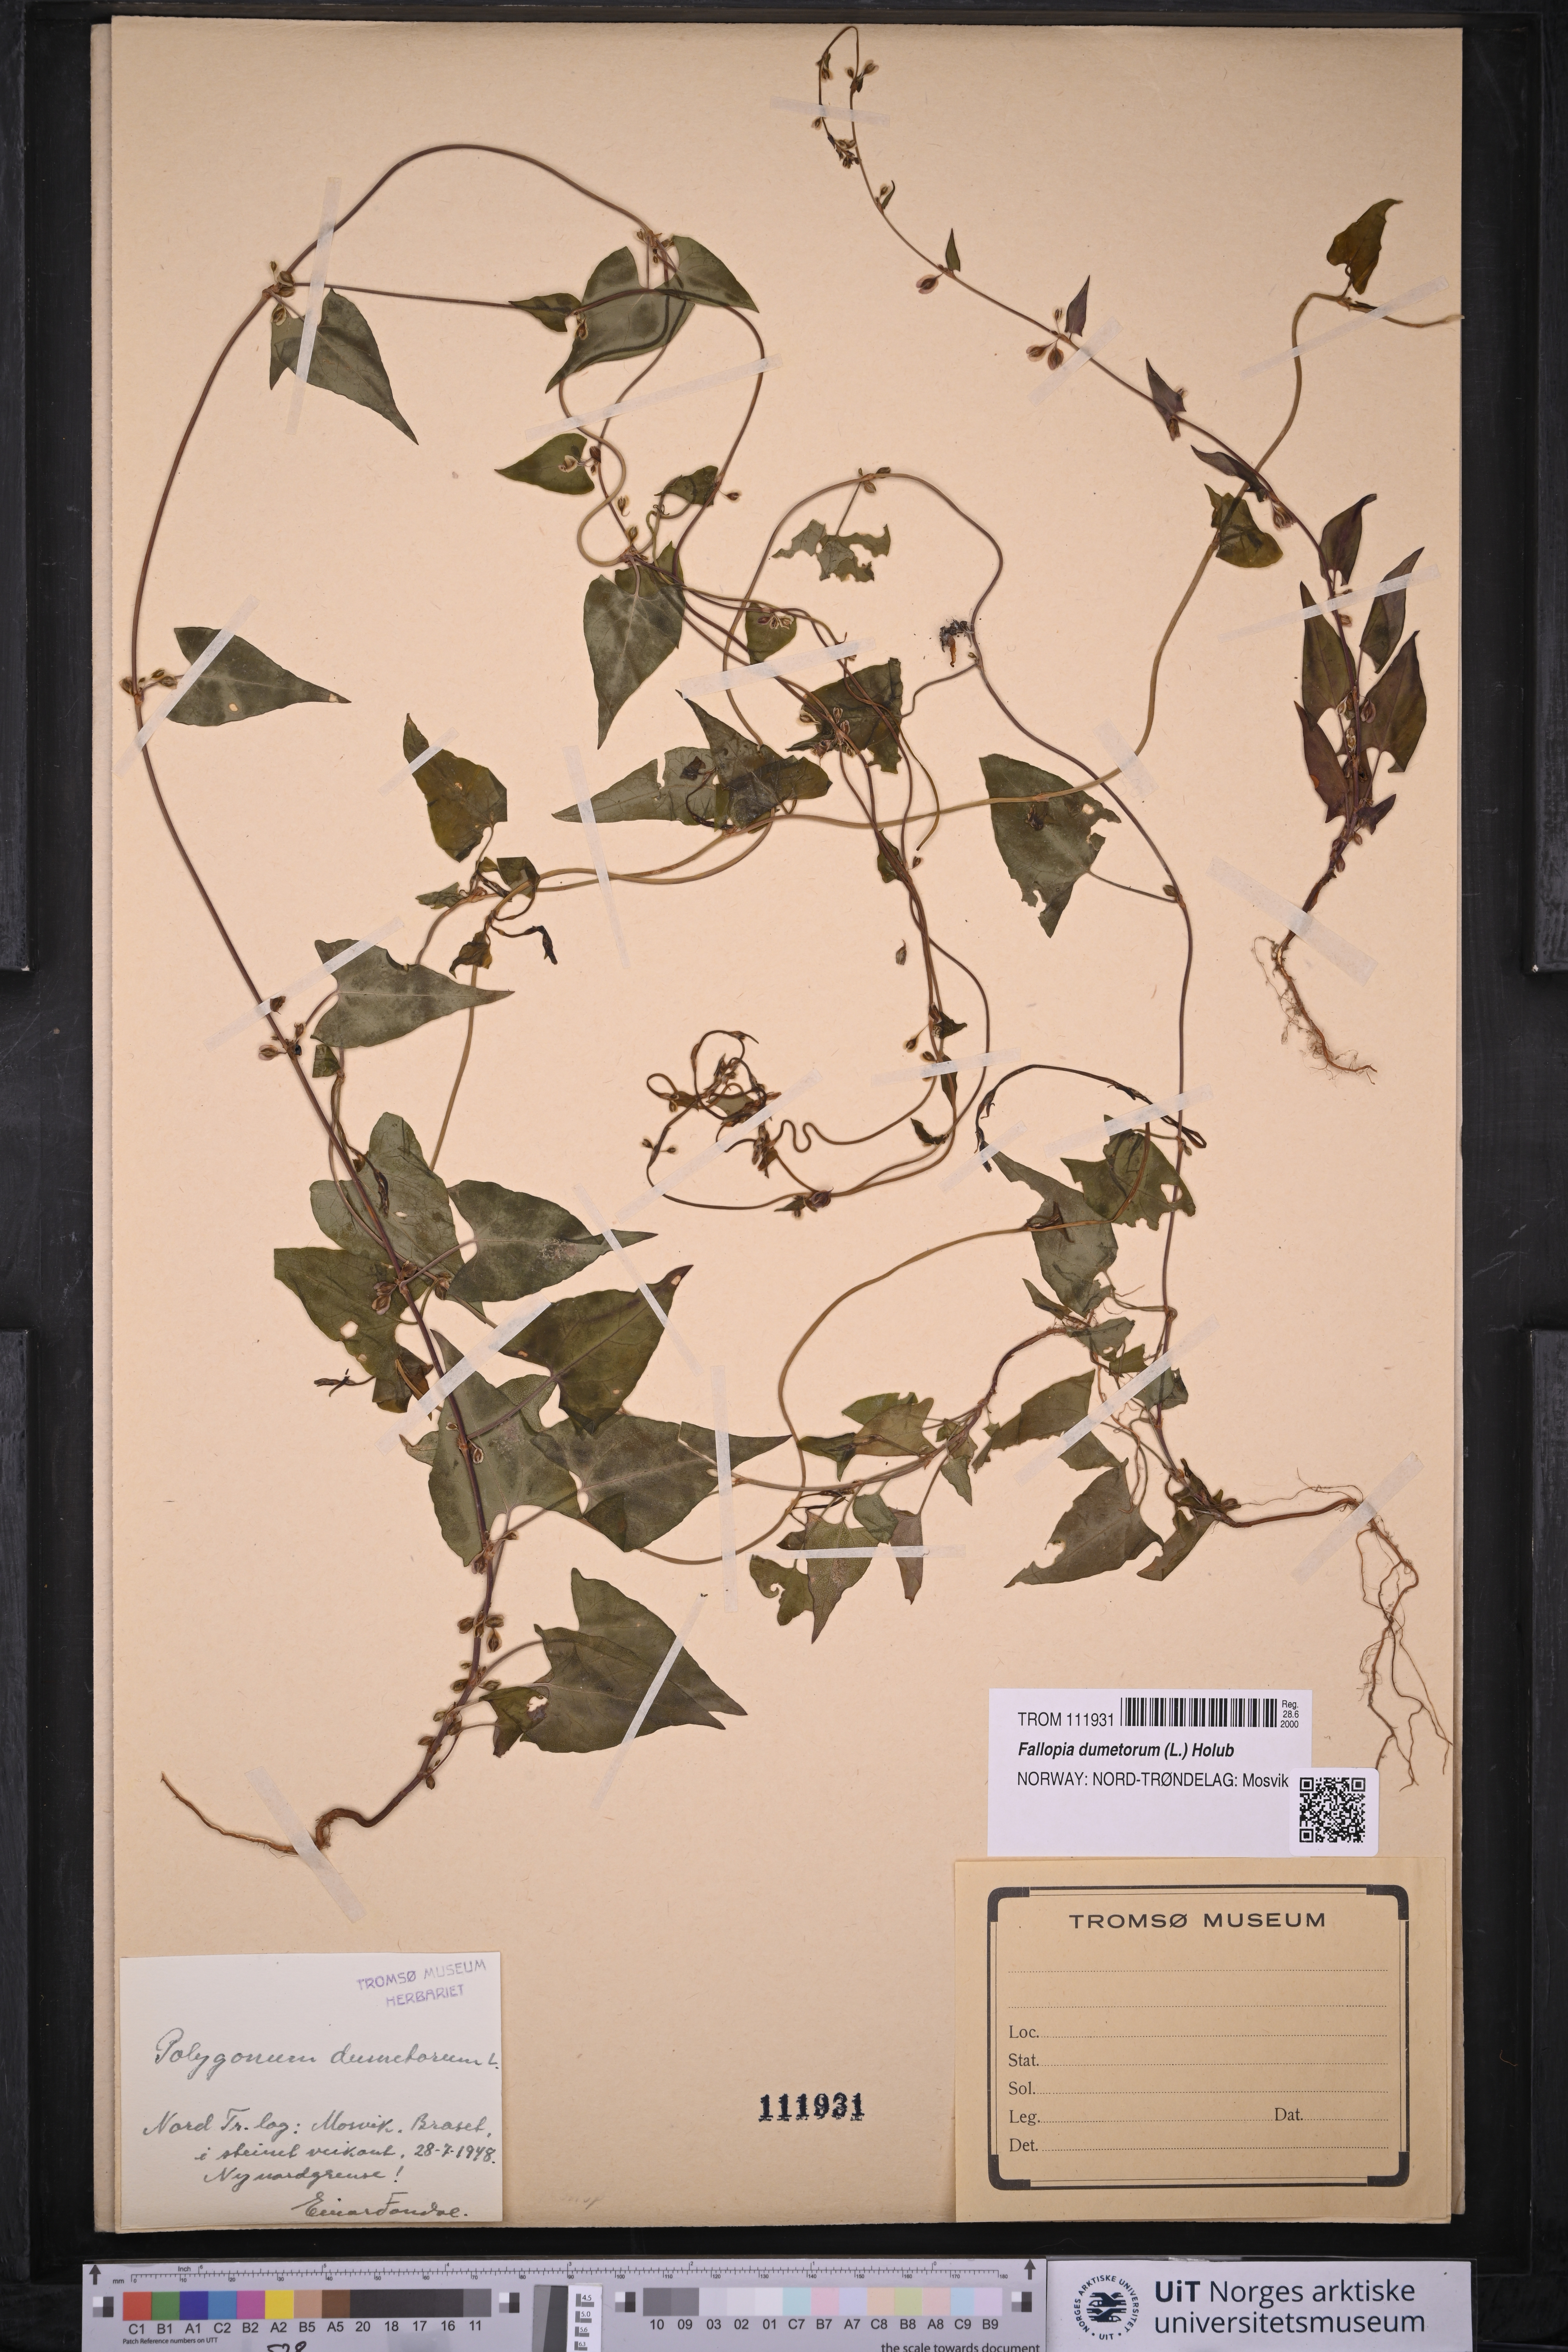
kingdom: Plantae
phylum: Tracheophyta
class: Magnoliopsida
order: Caryophyllales
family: Polygonaceae
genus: Fallopia
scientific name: Fallopia dumetorum
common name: Copse-bindweed
